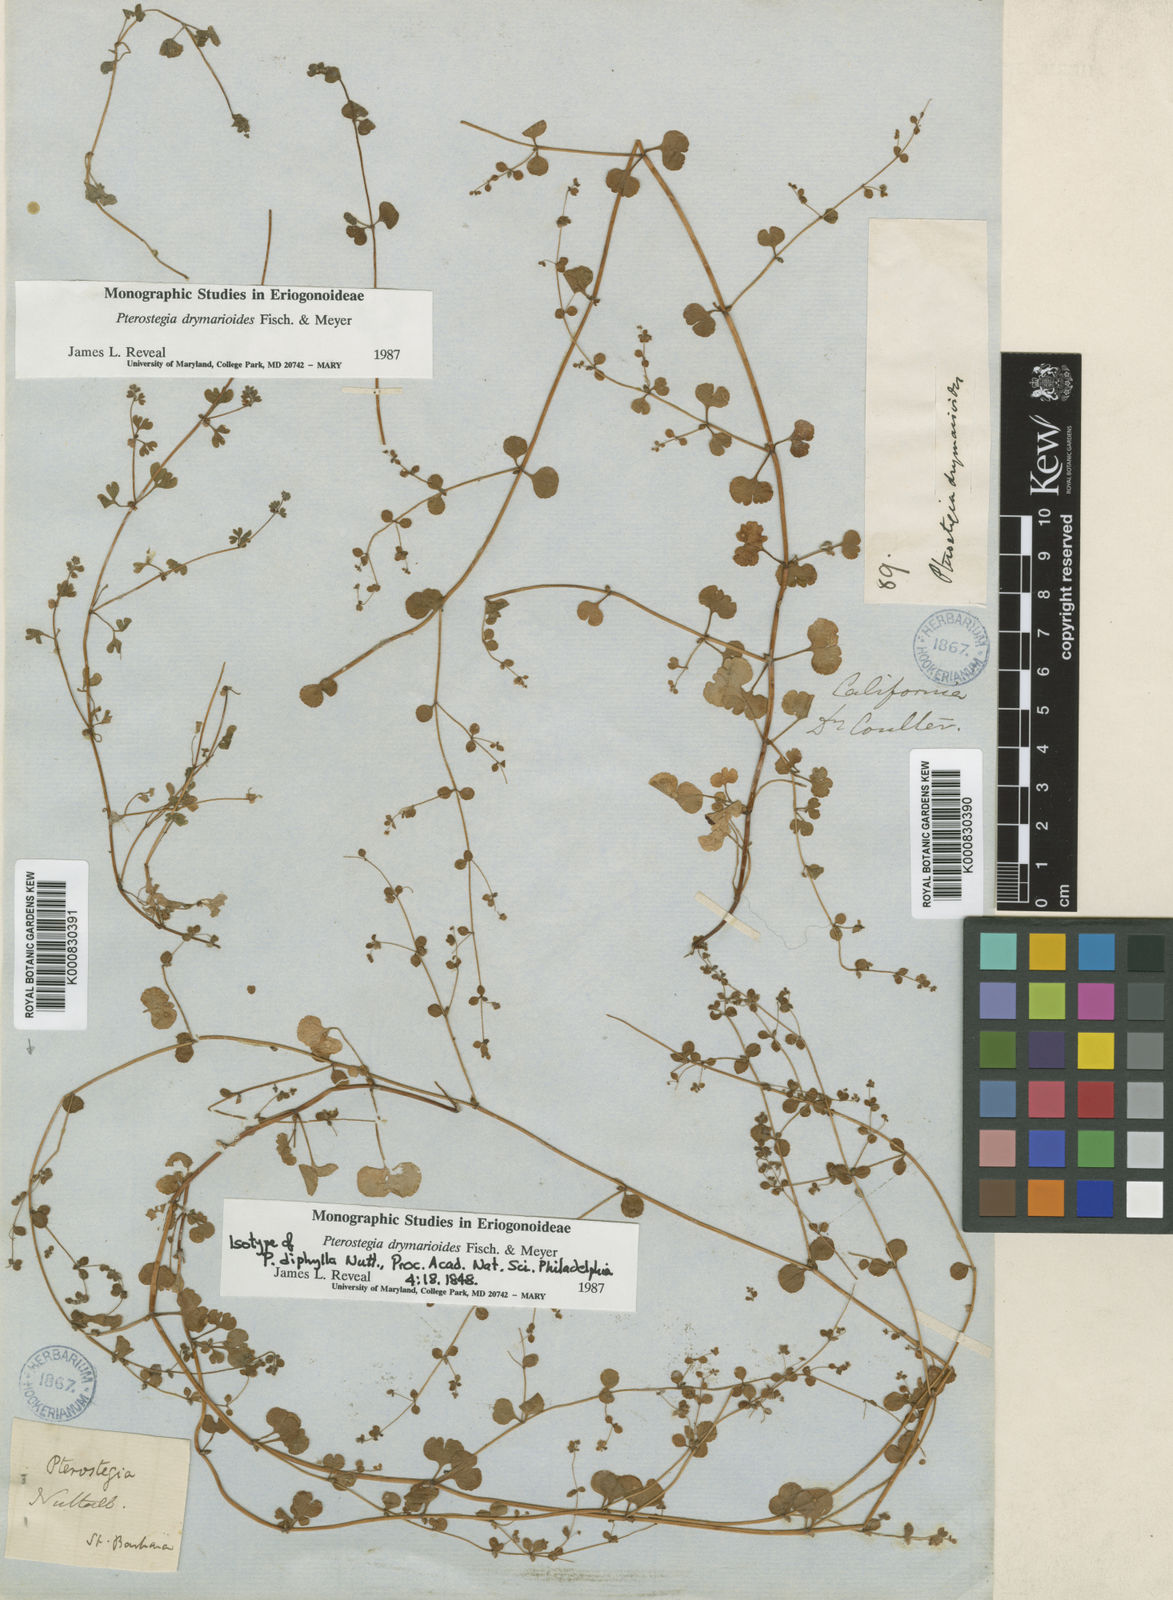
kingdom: Plantae
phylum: Tracheophyta
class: Magnoliopsida
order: Caryophyllales
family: Polygonaceae
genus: Pterostegia
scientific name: Pterostegia drymarioides
